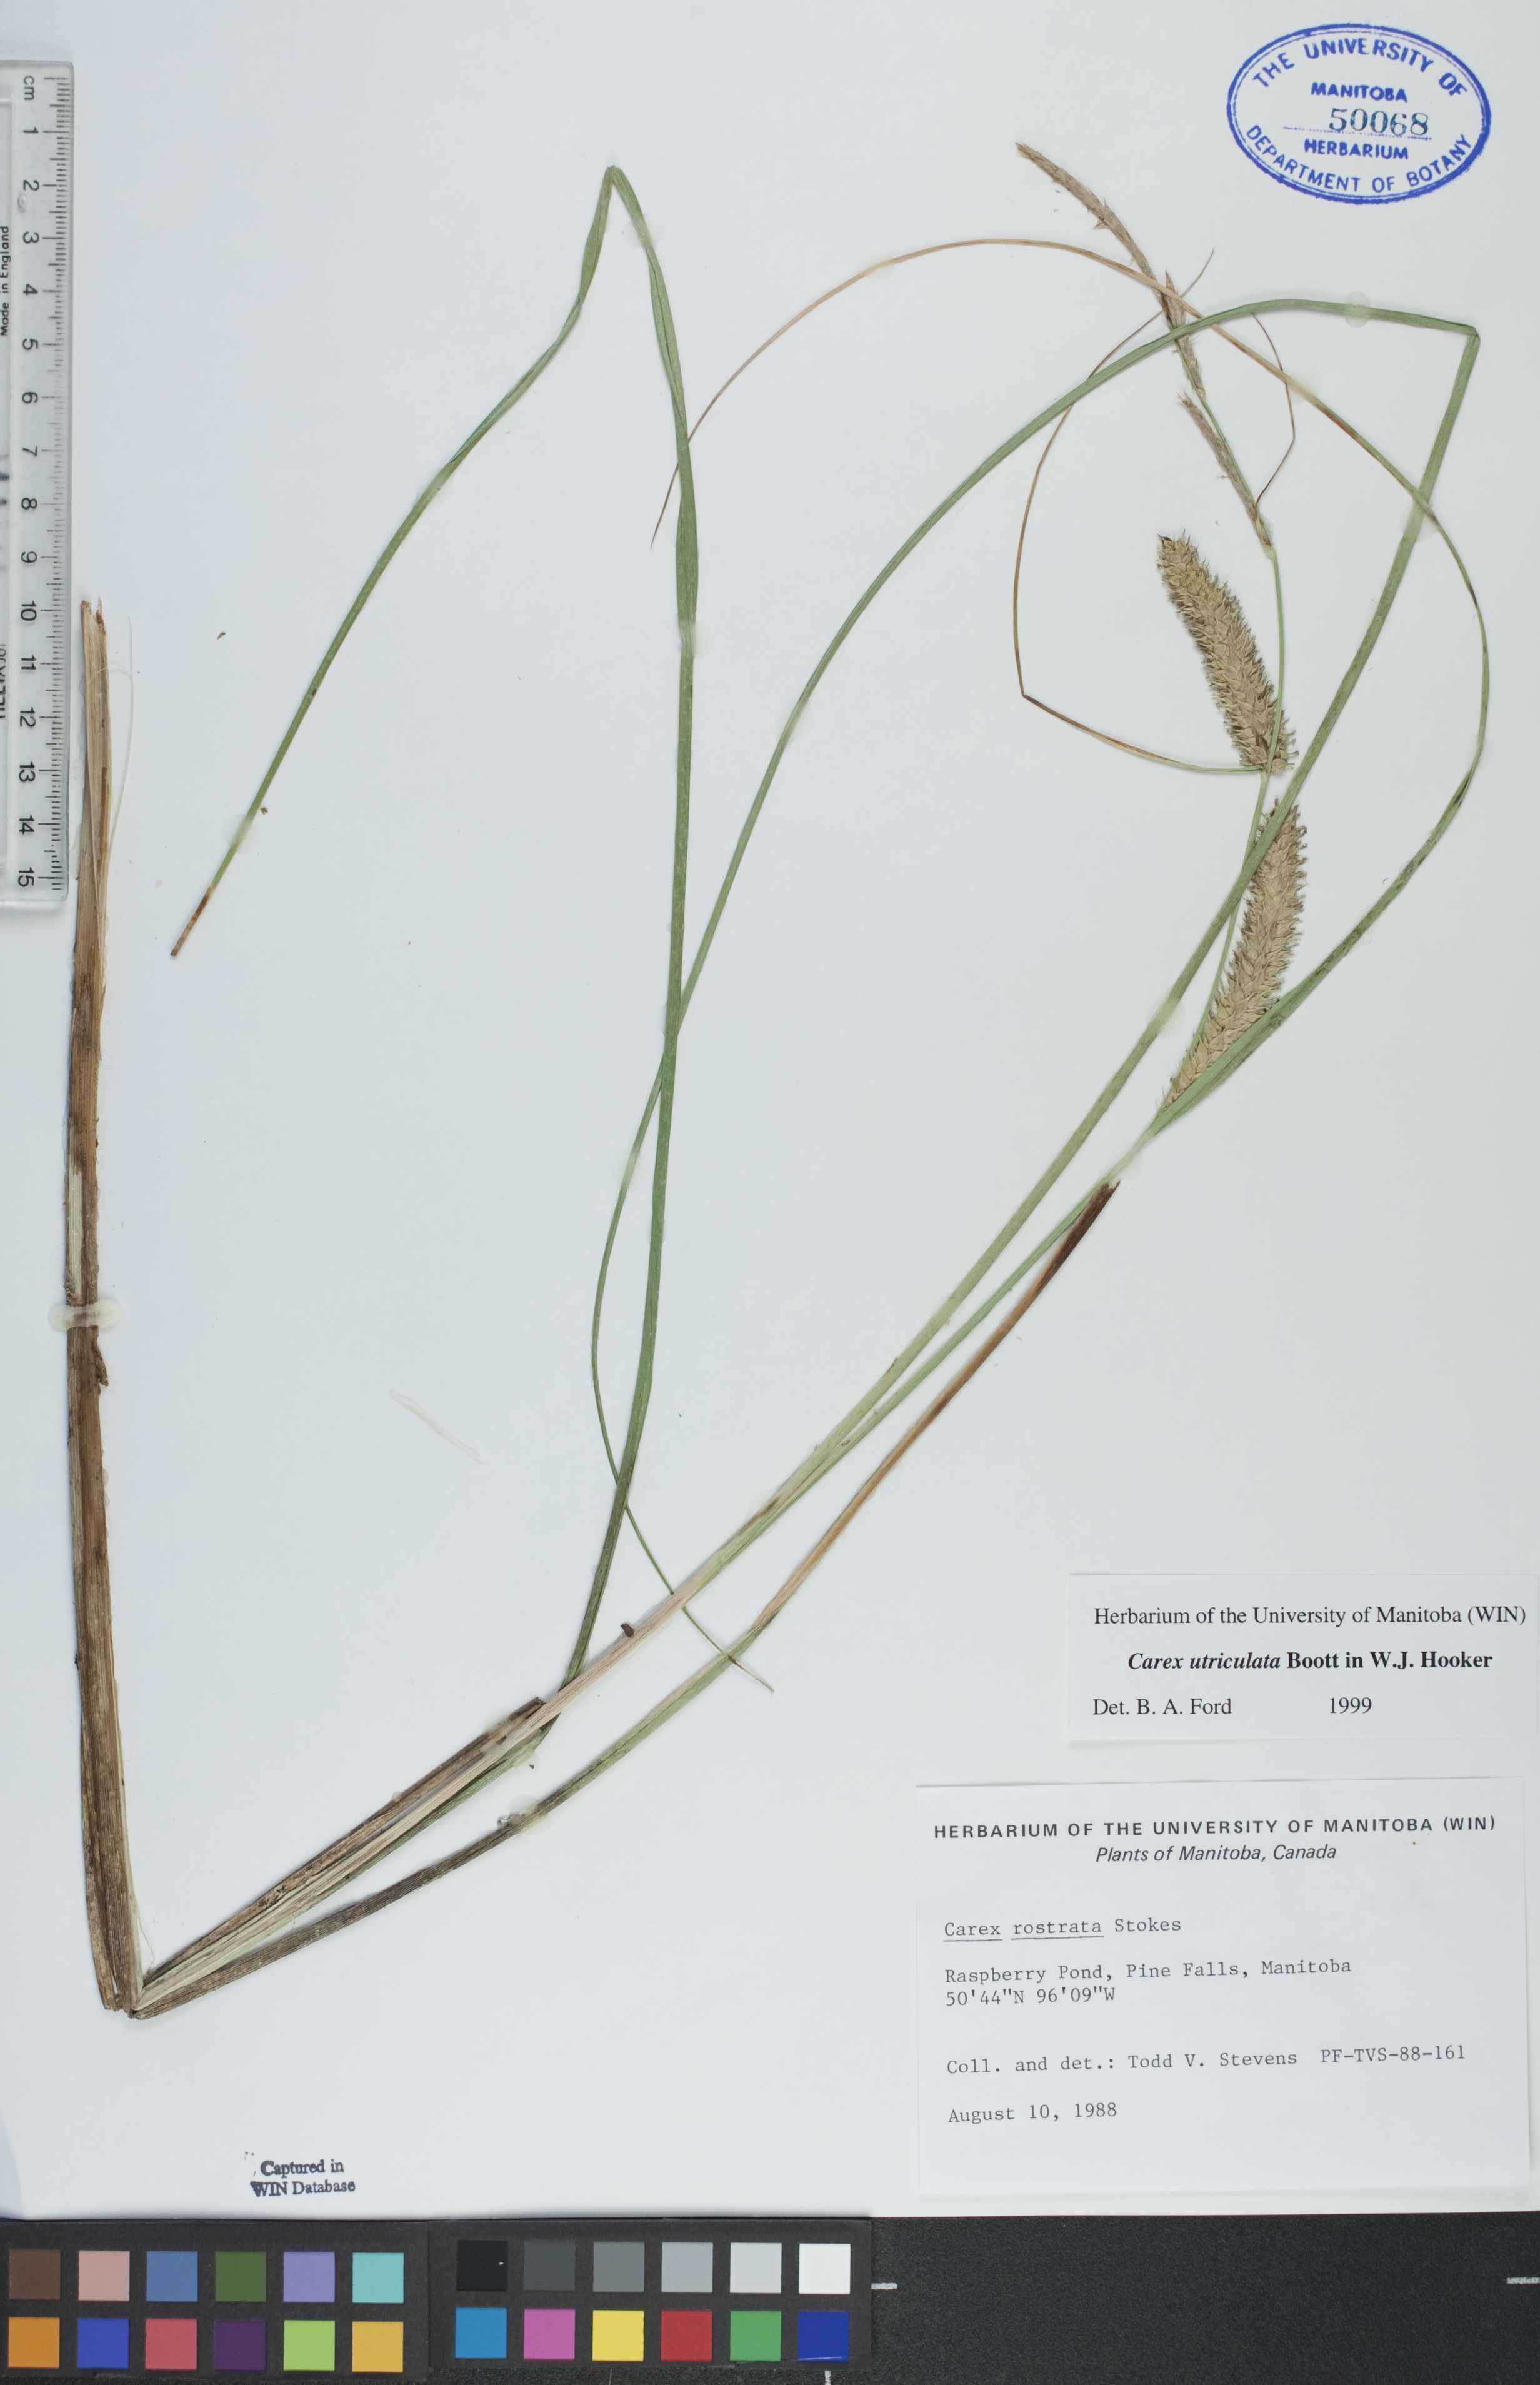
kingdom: Plantae
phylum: Tracheophyta
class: Liliopsida
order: Poales
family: Cyperaceae
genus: Carex
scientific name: Carex utriculata
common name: Beaked sedge
